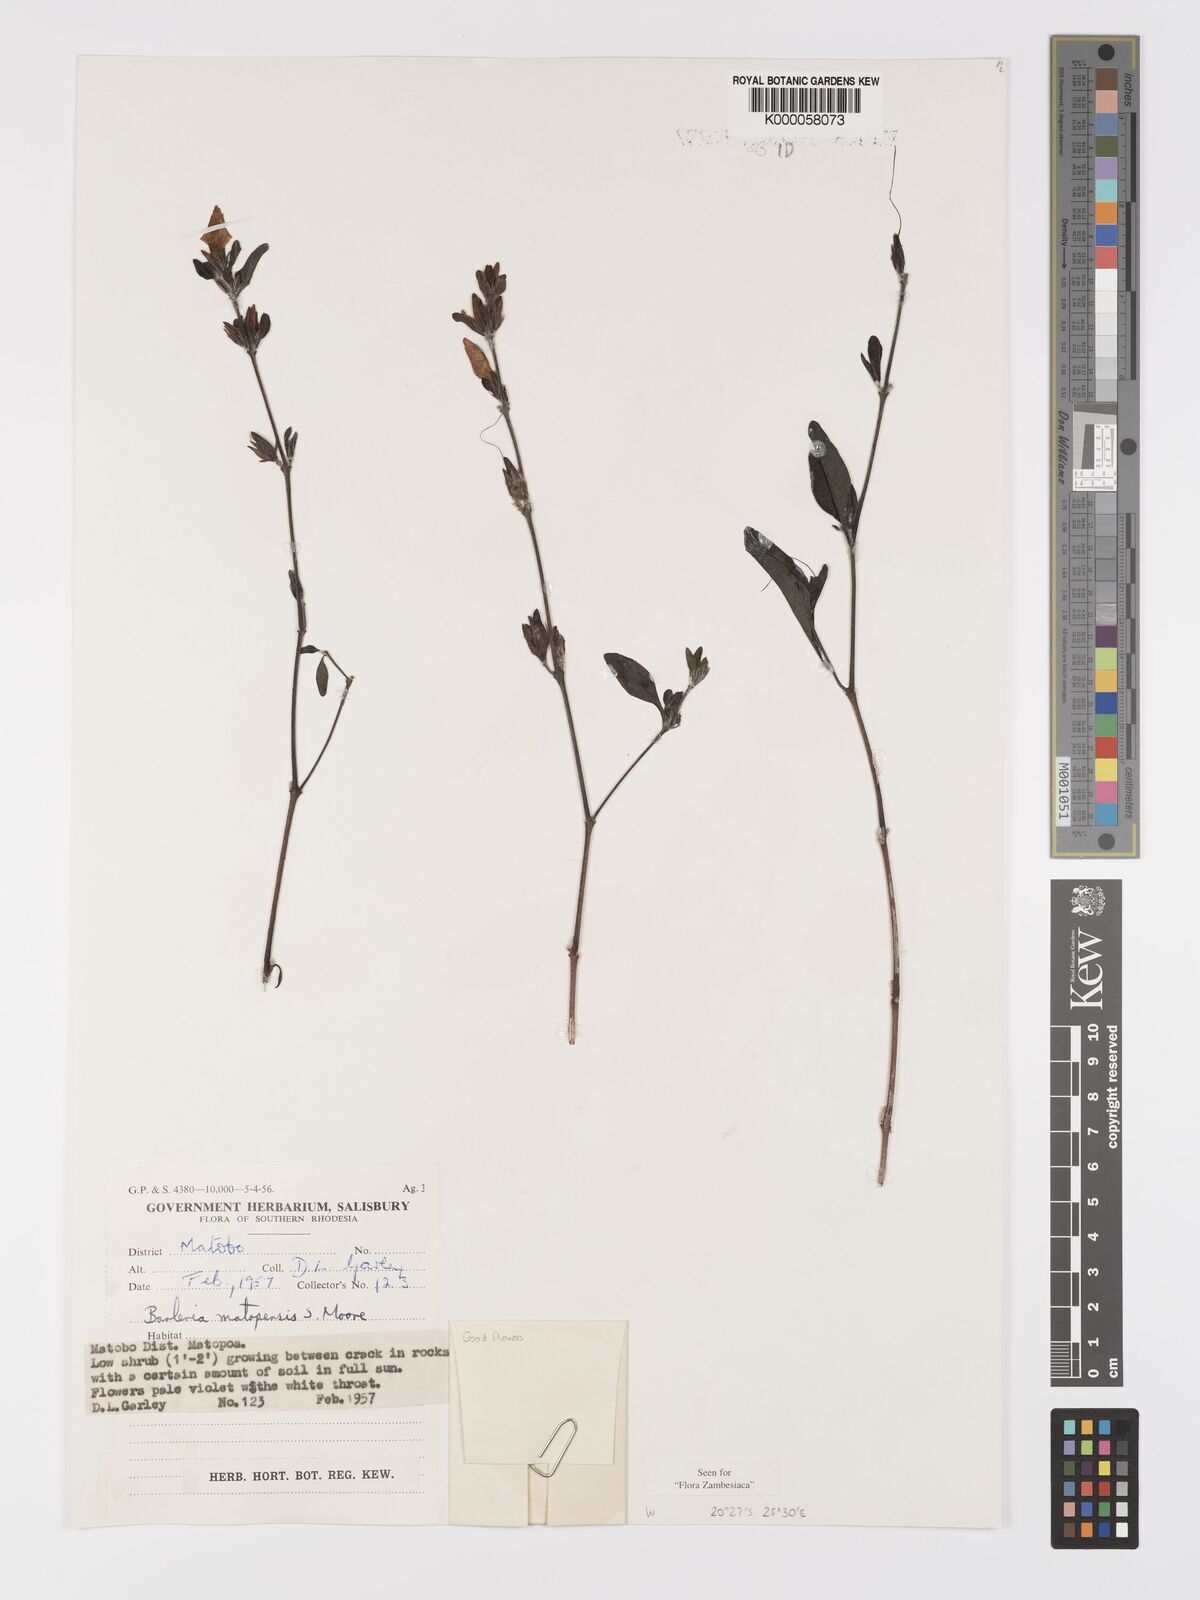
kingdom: Plantae
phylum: Tracheophyta
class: Magnoliopsida
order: Lamiales
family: Acanthaceae
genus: Barleria
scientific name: Barleria matopensis
